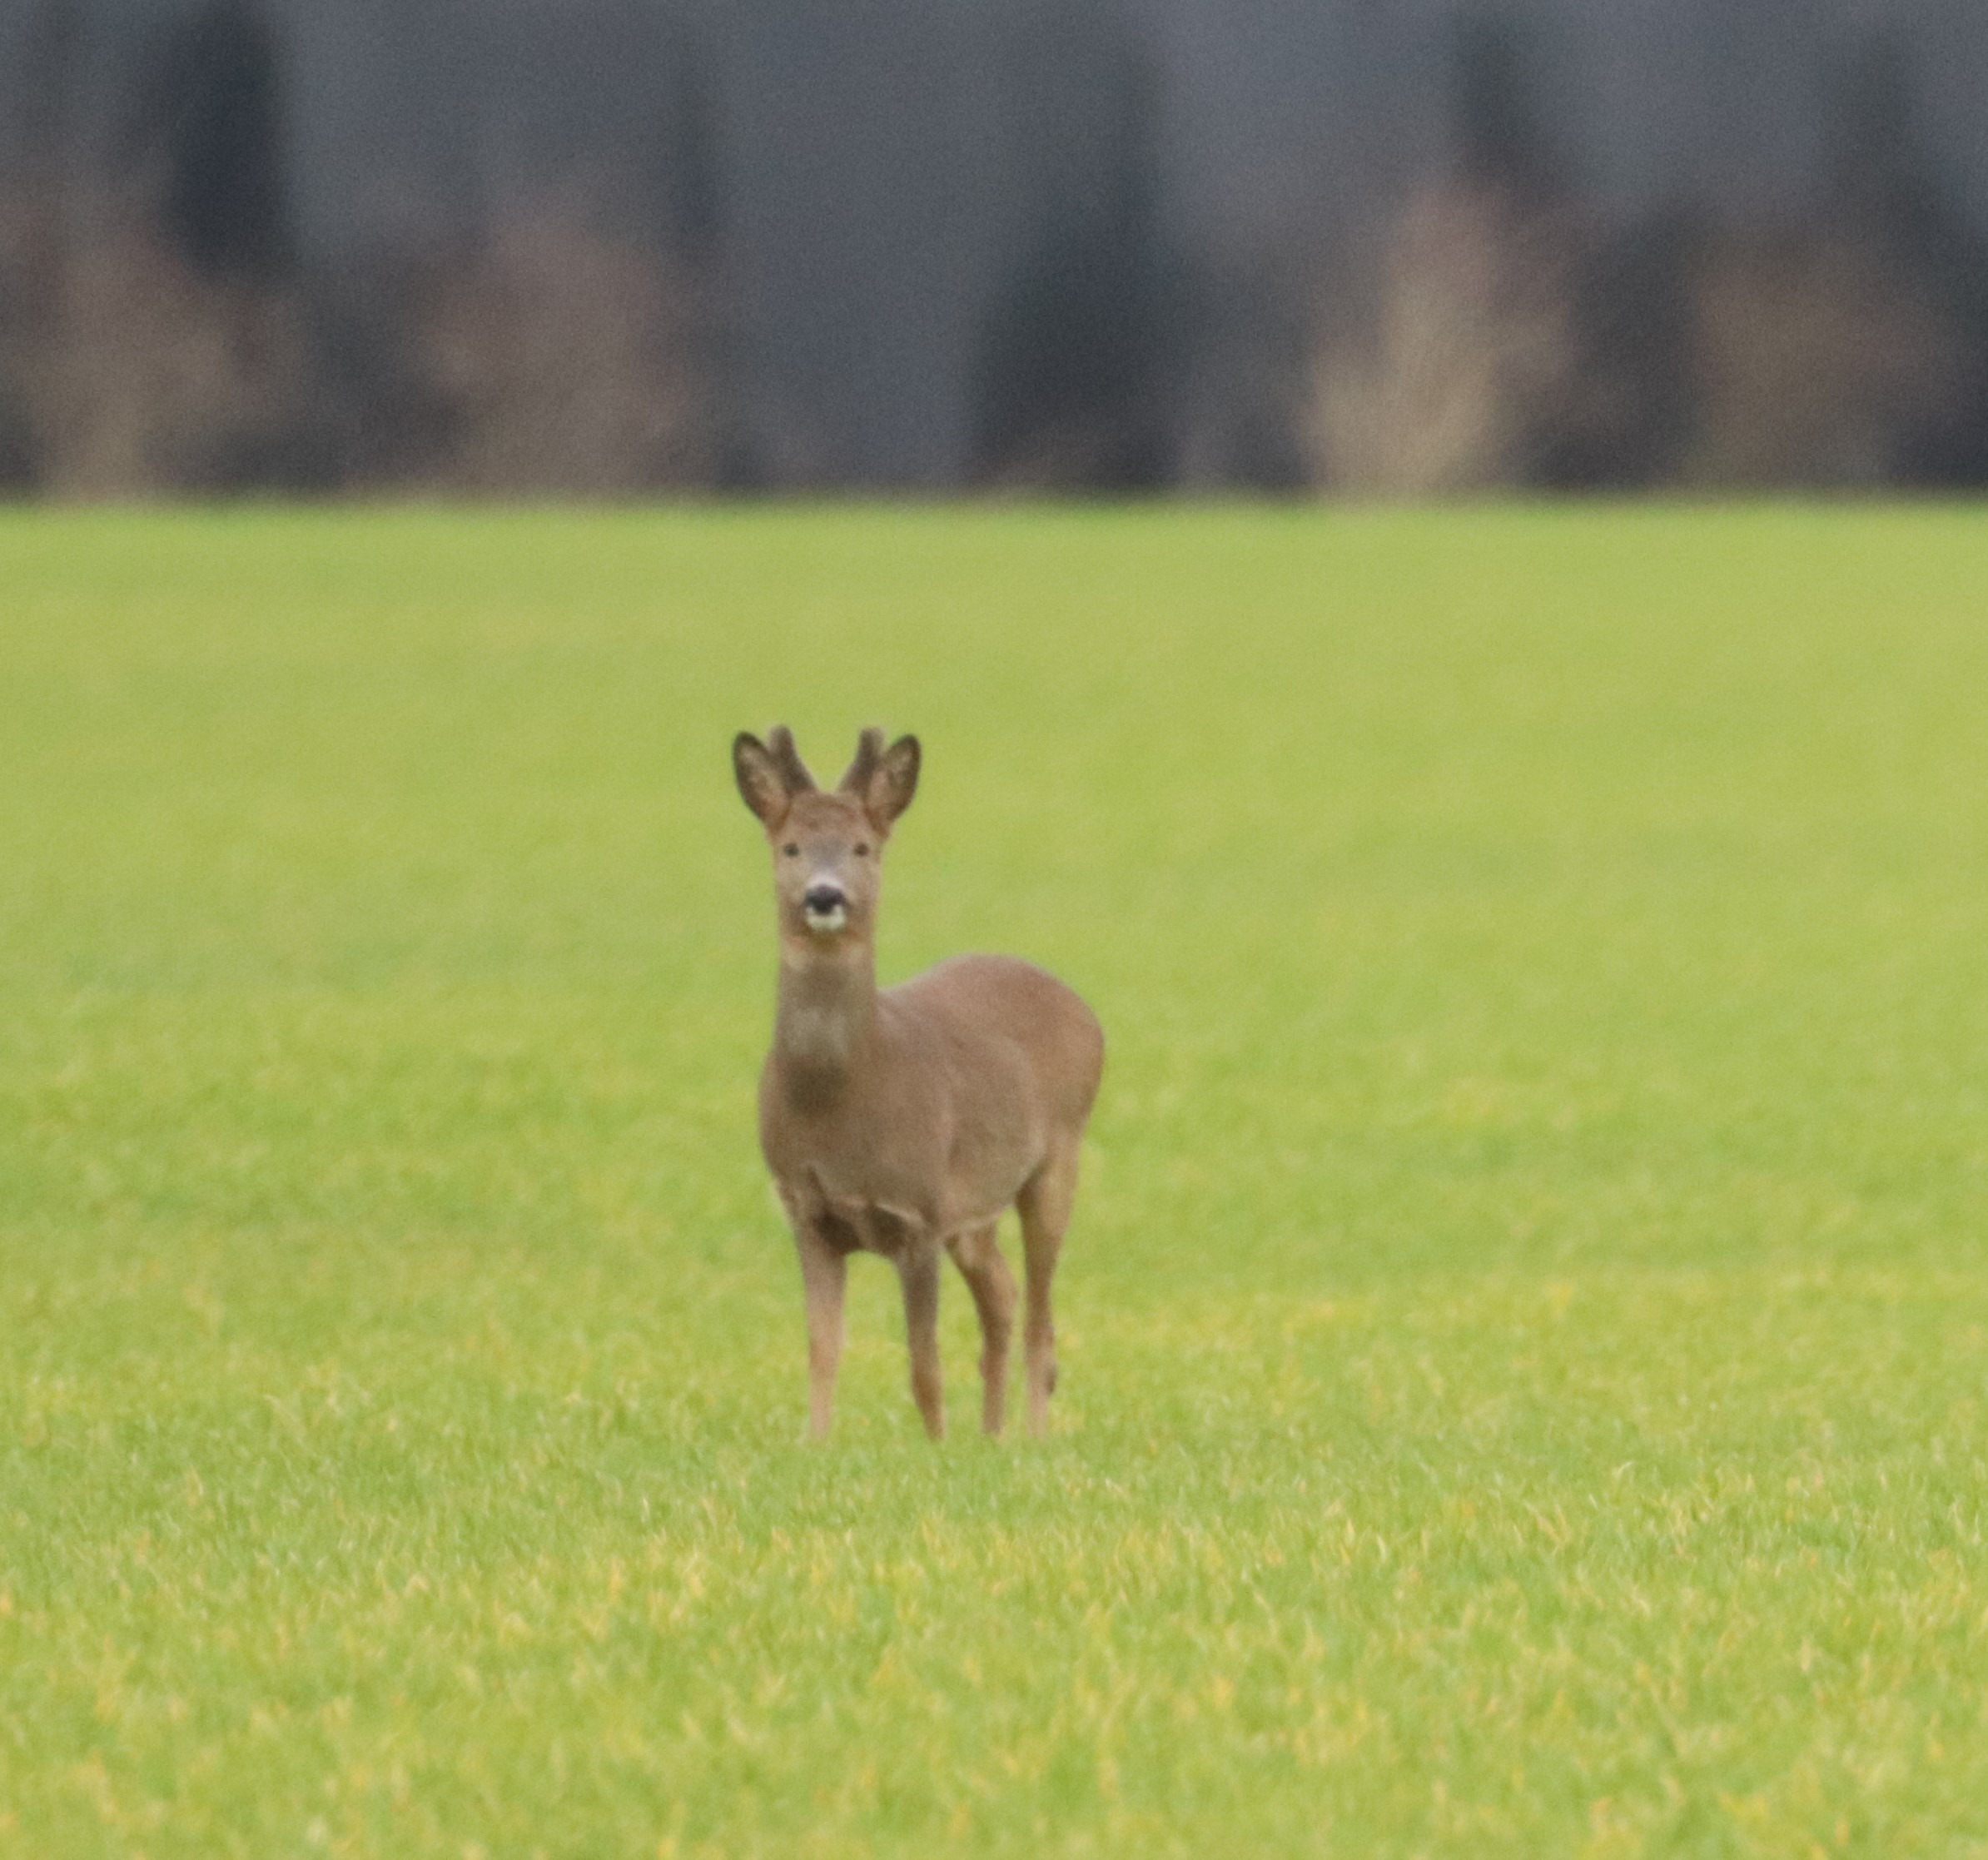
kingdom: Animalia
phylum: Chordata
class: Mammalia
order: Artiodactyla
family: Cervidae
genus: Capreolus
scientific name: Capreolus capreolus
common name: Rådyr
